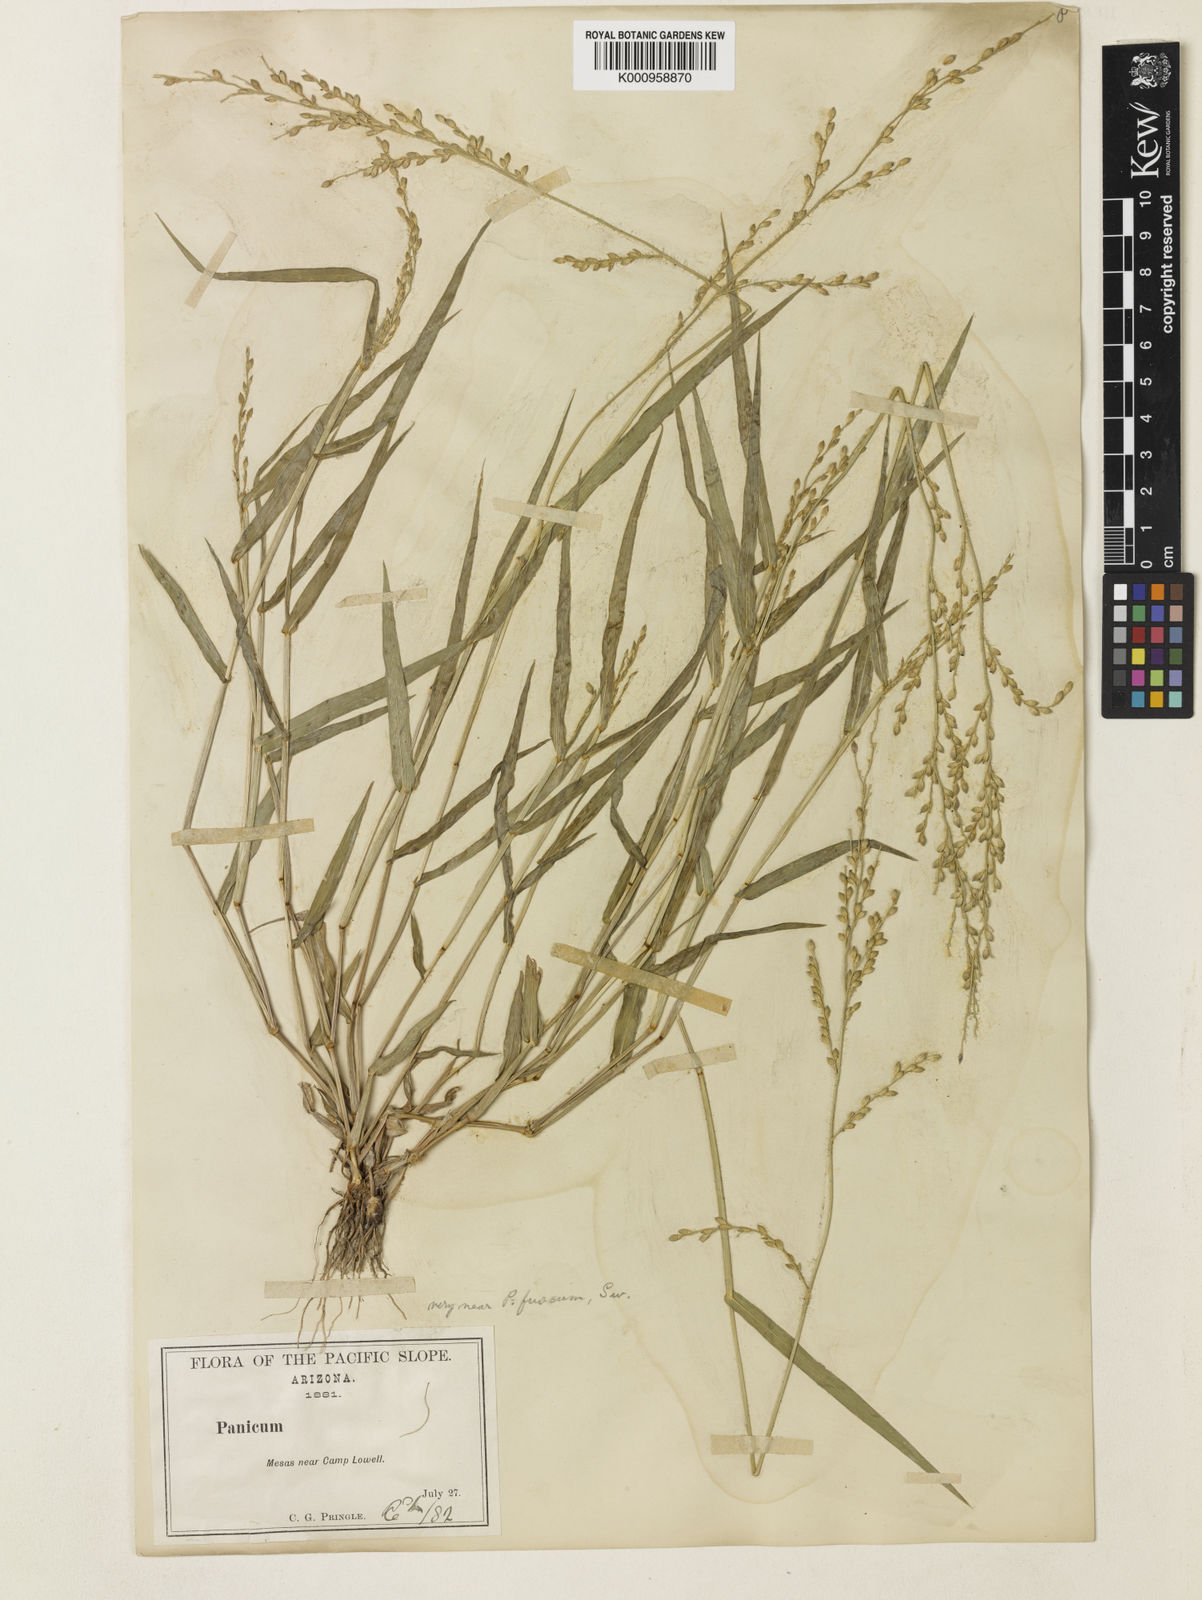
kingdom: Plantae
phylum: Tracheophyta
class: Liliopsida
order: Poales
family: Poaceae
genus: Urochloa
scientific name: Urochloa arizonica
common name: Arizona signal grass
